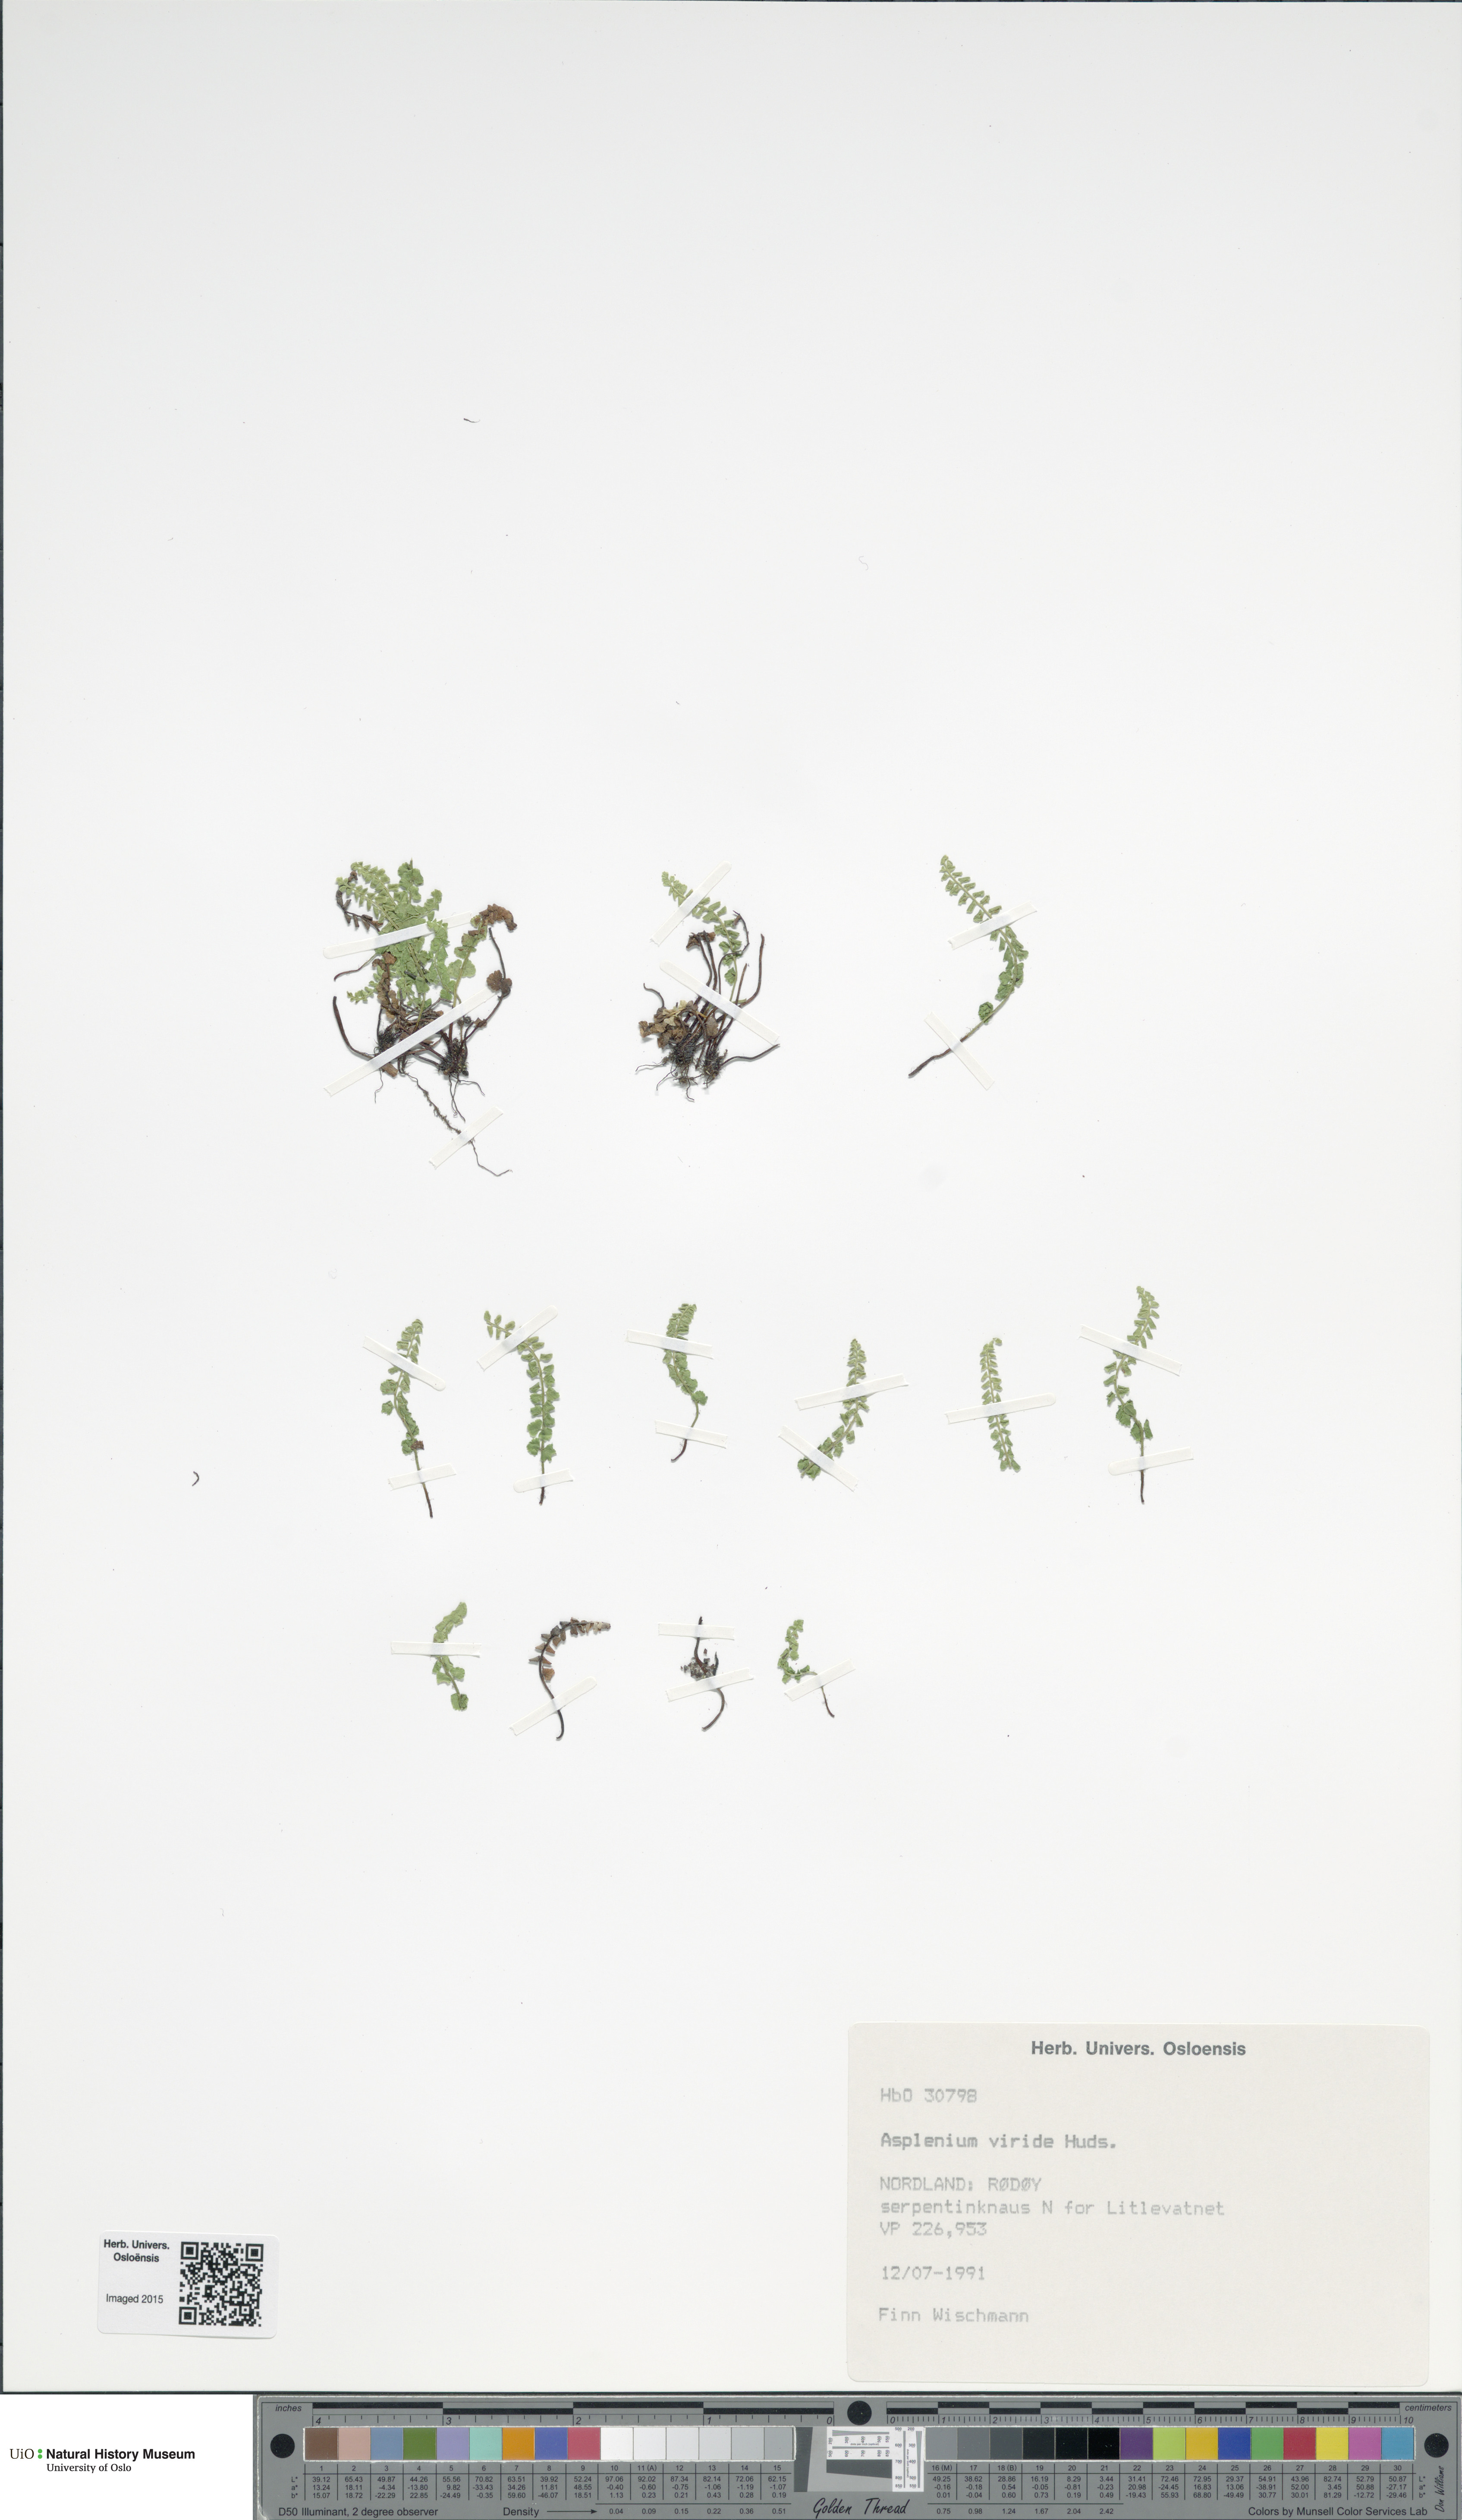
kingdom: Plantae
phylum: Tracheophyta
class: Polypodiopsida
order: Polypodiales
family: Aspleniaceae
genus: Asplenium
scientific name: Asplenium viride
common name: Green spleenwort
